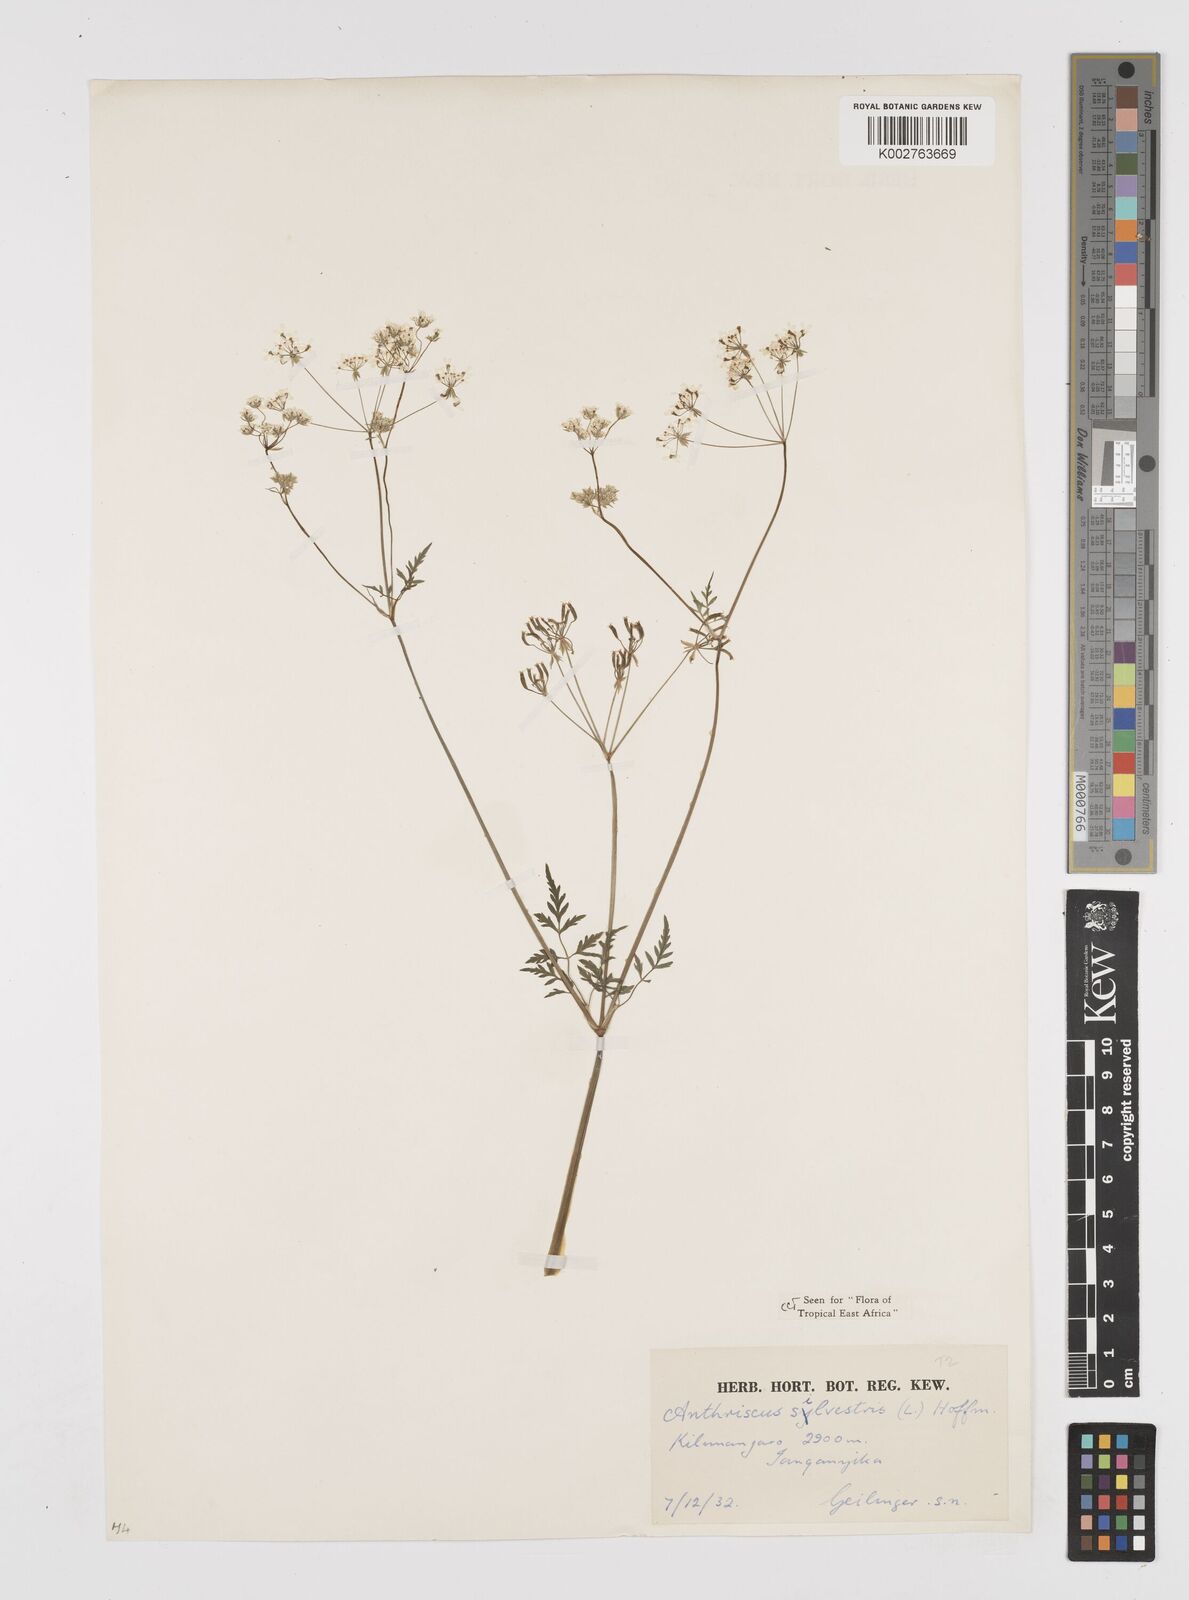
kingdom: Plantae
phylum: Tracheophyta
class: Magnoliopsida
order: Apiales
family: Apiaceae
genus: Anthriscus
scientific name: Anthriscus sylvestris
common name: Cow parsley
